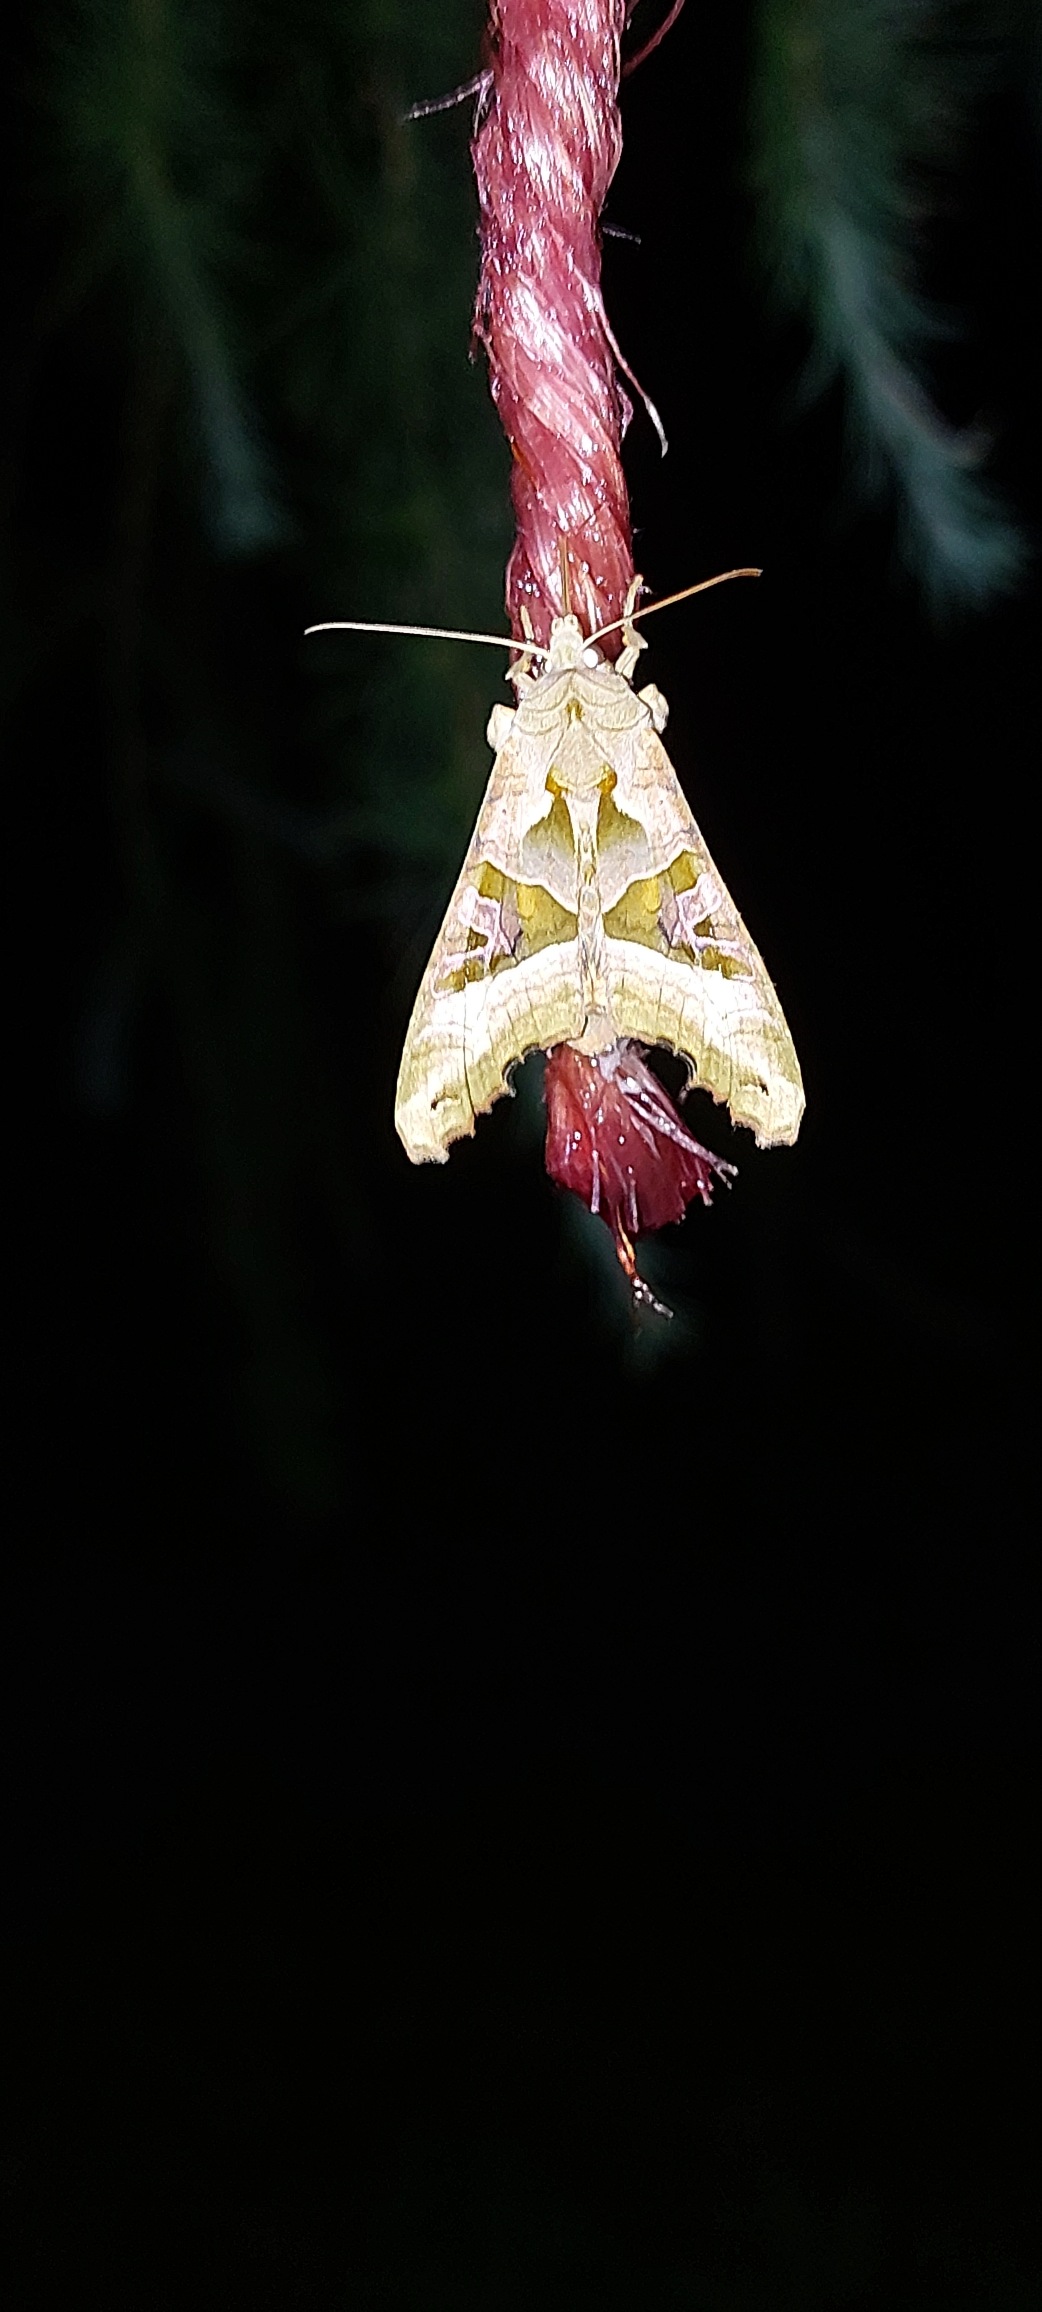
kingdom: Animalia
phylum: Arthropoda
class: Insecta
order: Lepidoptera
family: Noctuidae
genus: Phlogophora
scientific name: Phlogophora meticulosa
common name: Agatugle
